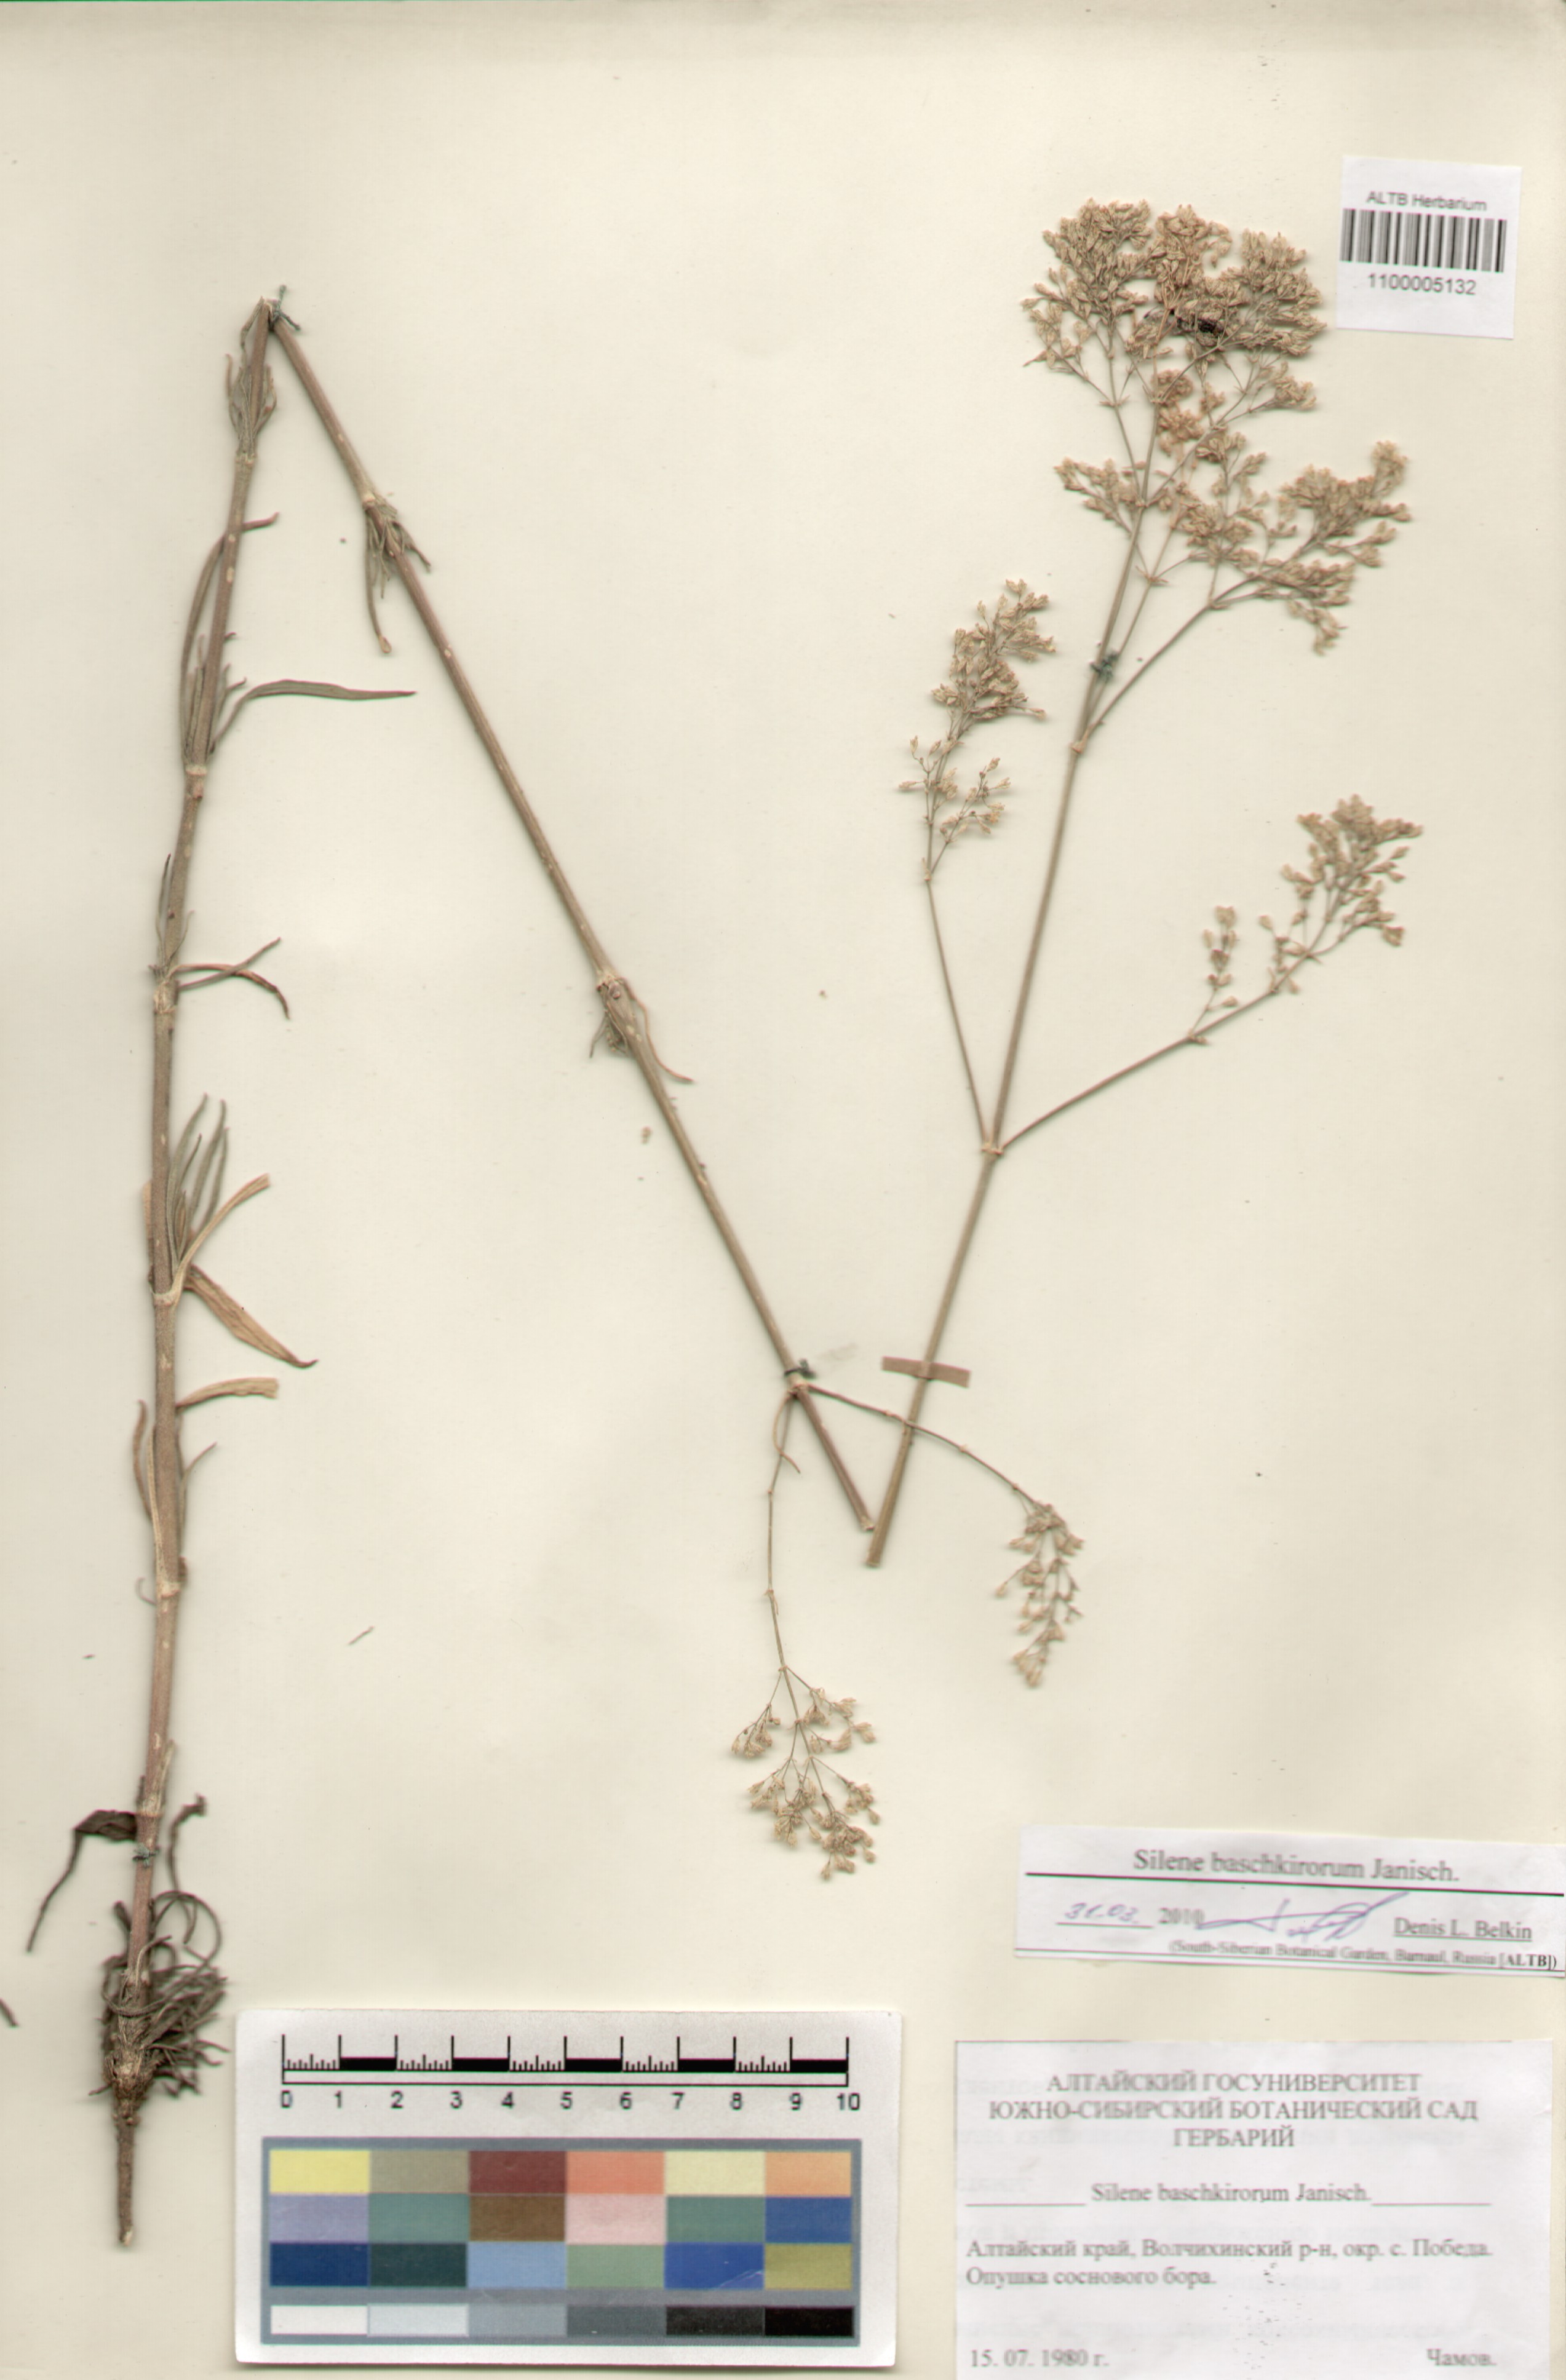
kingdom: Plantae
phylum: Tracheophyta
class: Magnoliopsida
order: Caryophyllales
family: Caryophyllaceae
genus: Silene
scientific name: Silene baschkirorum
